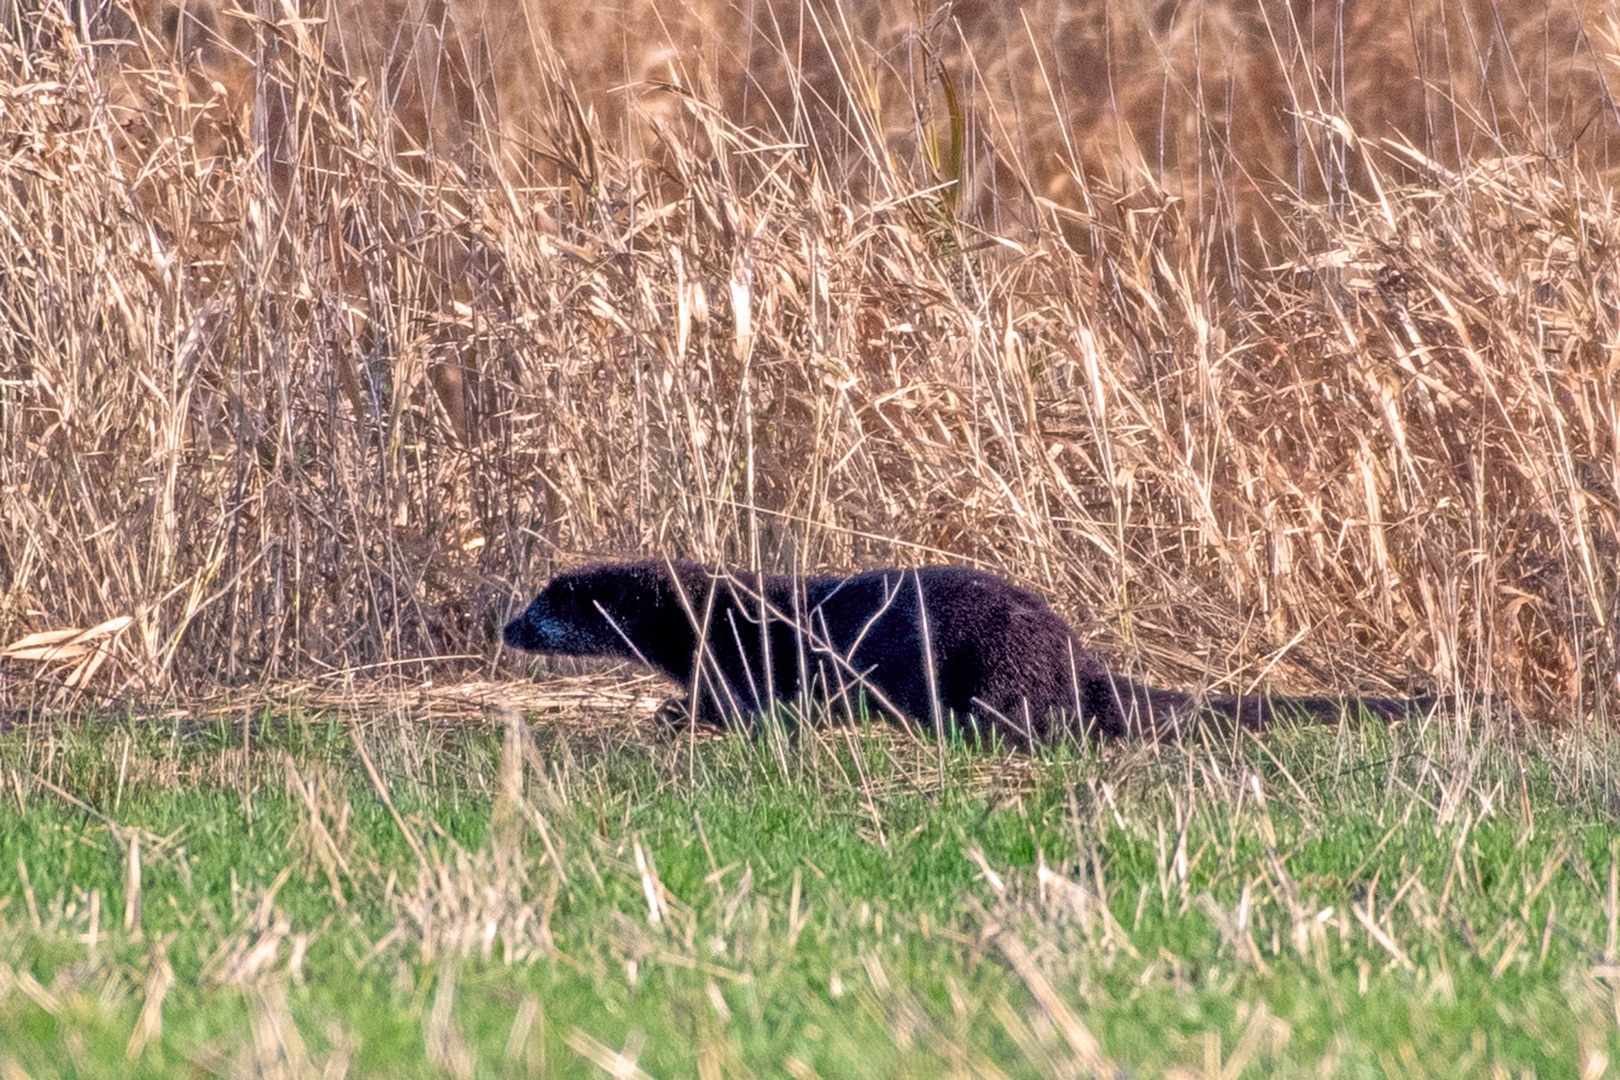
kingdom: Animalia
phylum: Chordata
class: Mammalia
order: Carnivora
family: Mustelidae
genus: Lutra
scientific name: Lutra lutra
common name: Odder
